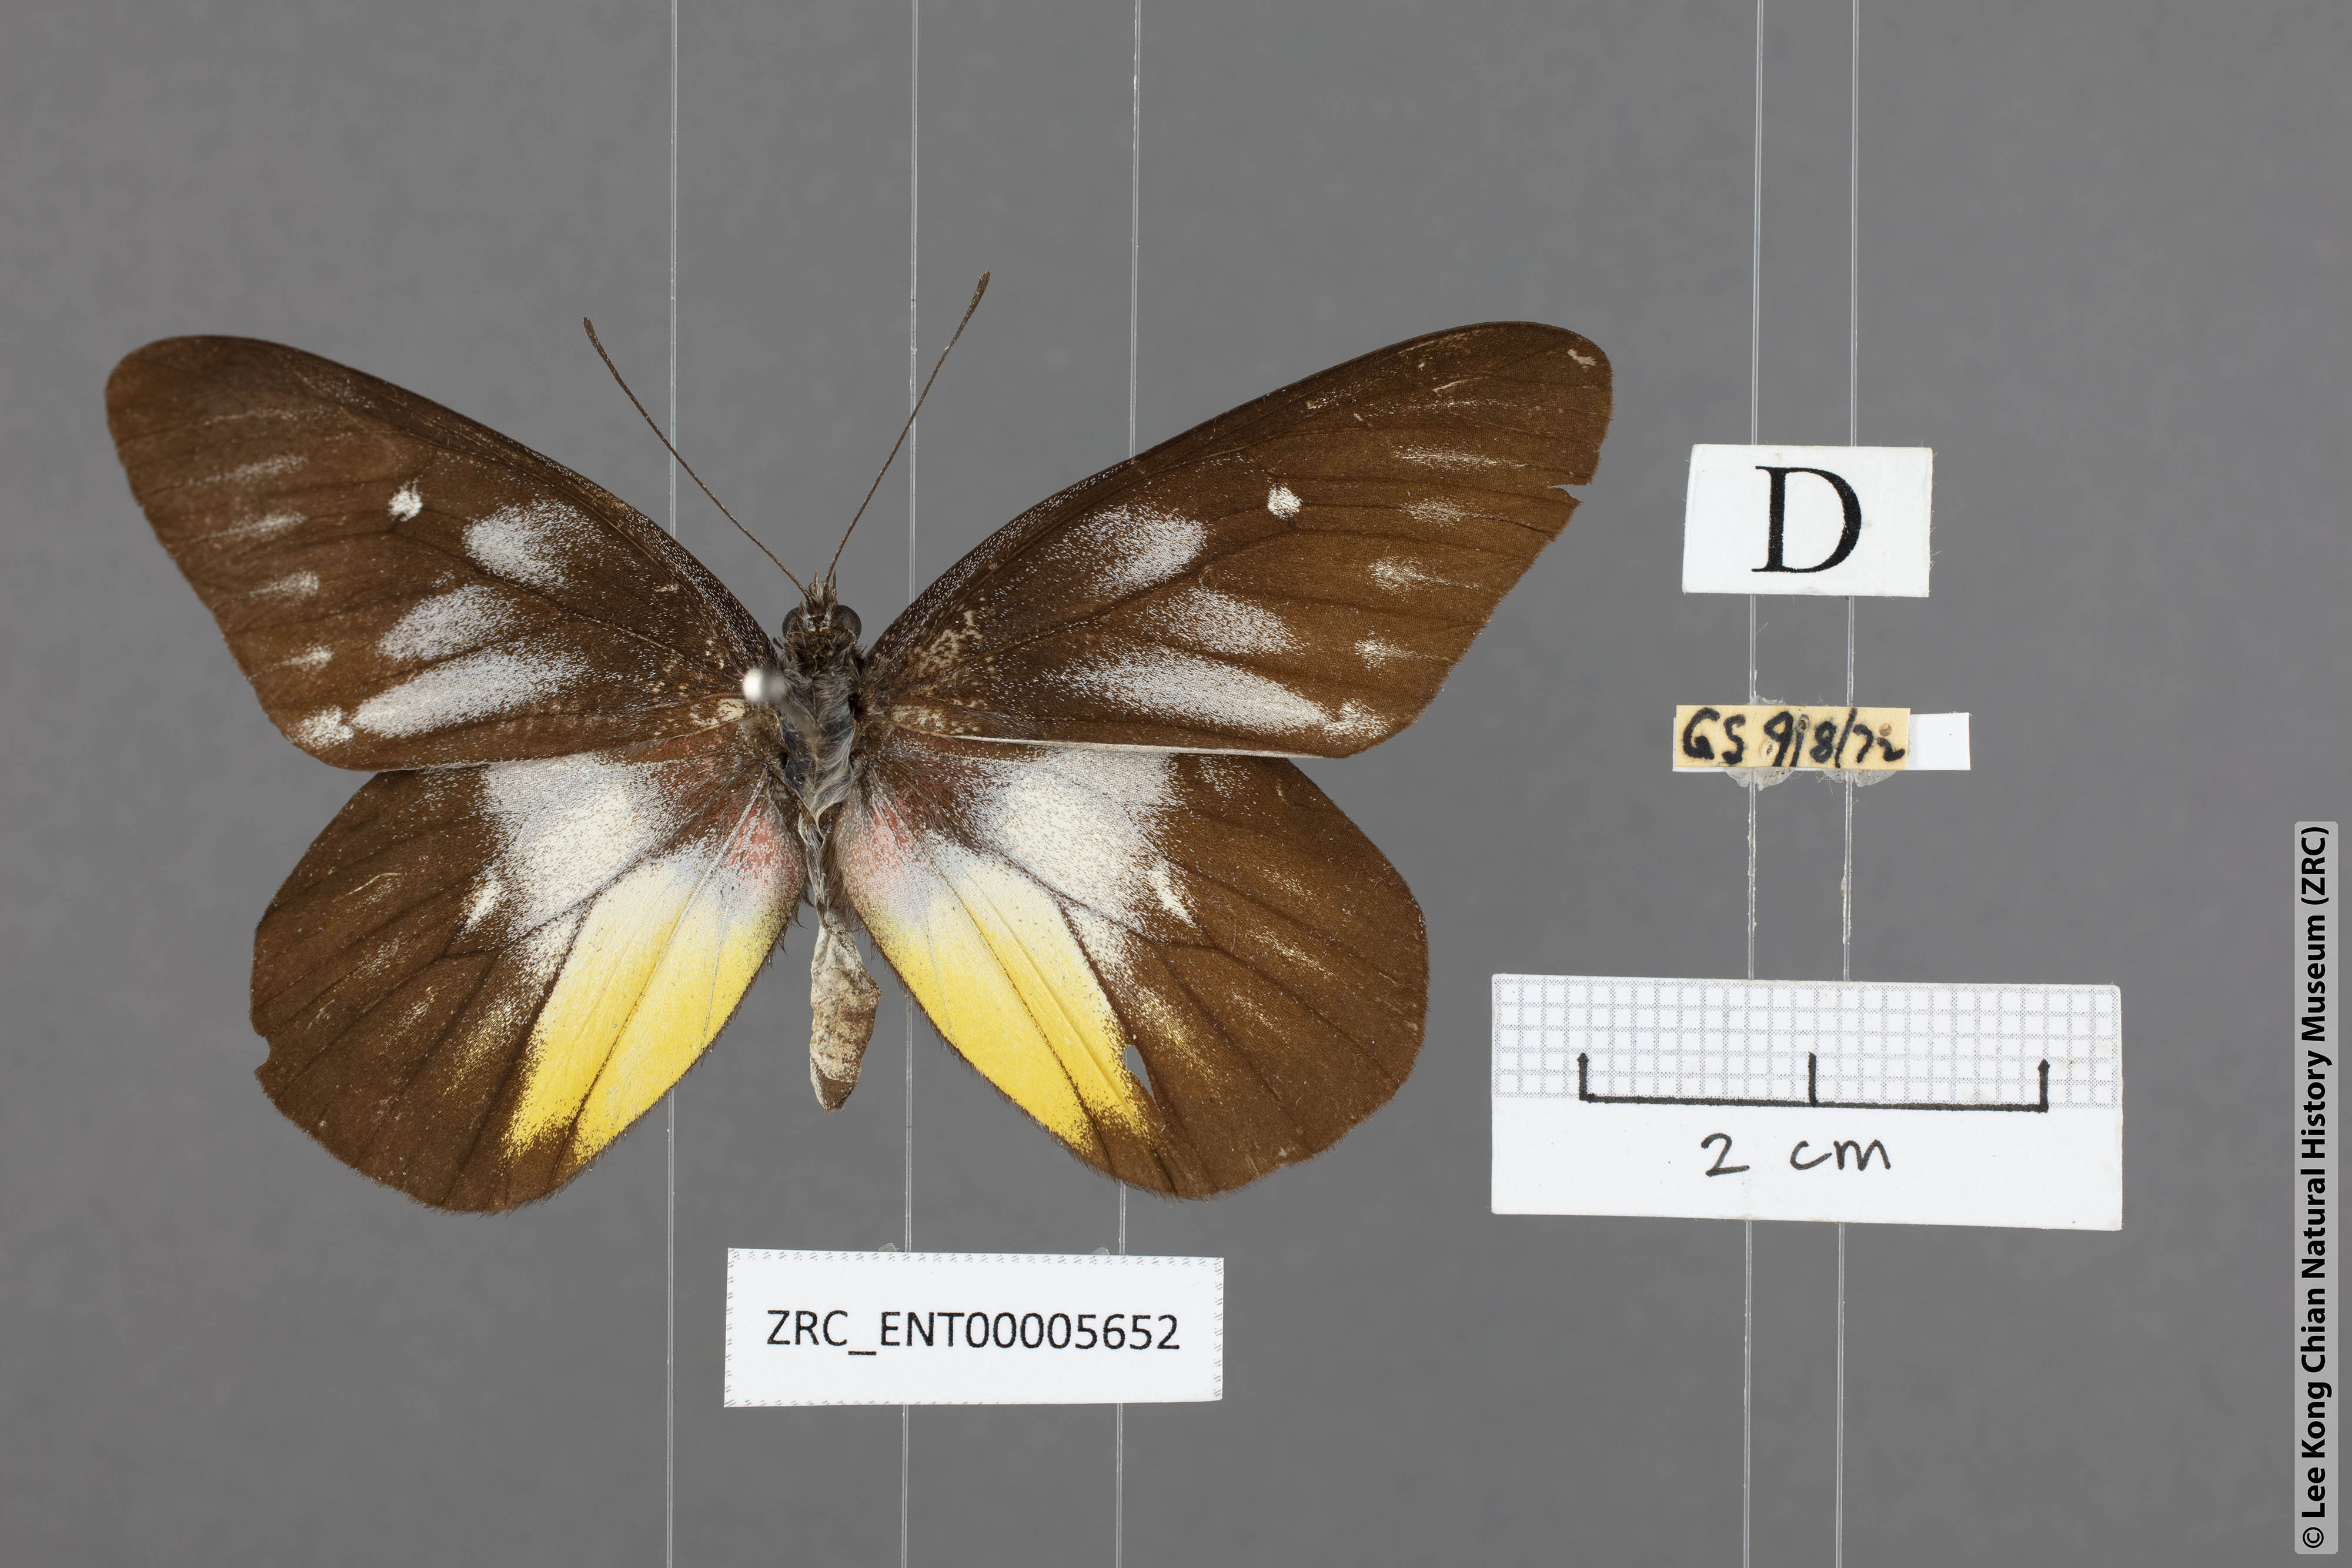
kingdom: Animalia
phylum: Arthropoda
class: Insecta
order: Lepidoptera
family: Pieridae
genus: Delias
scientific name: Delias pasithoe
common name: Red-base jezebel
